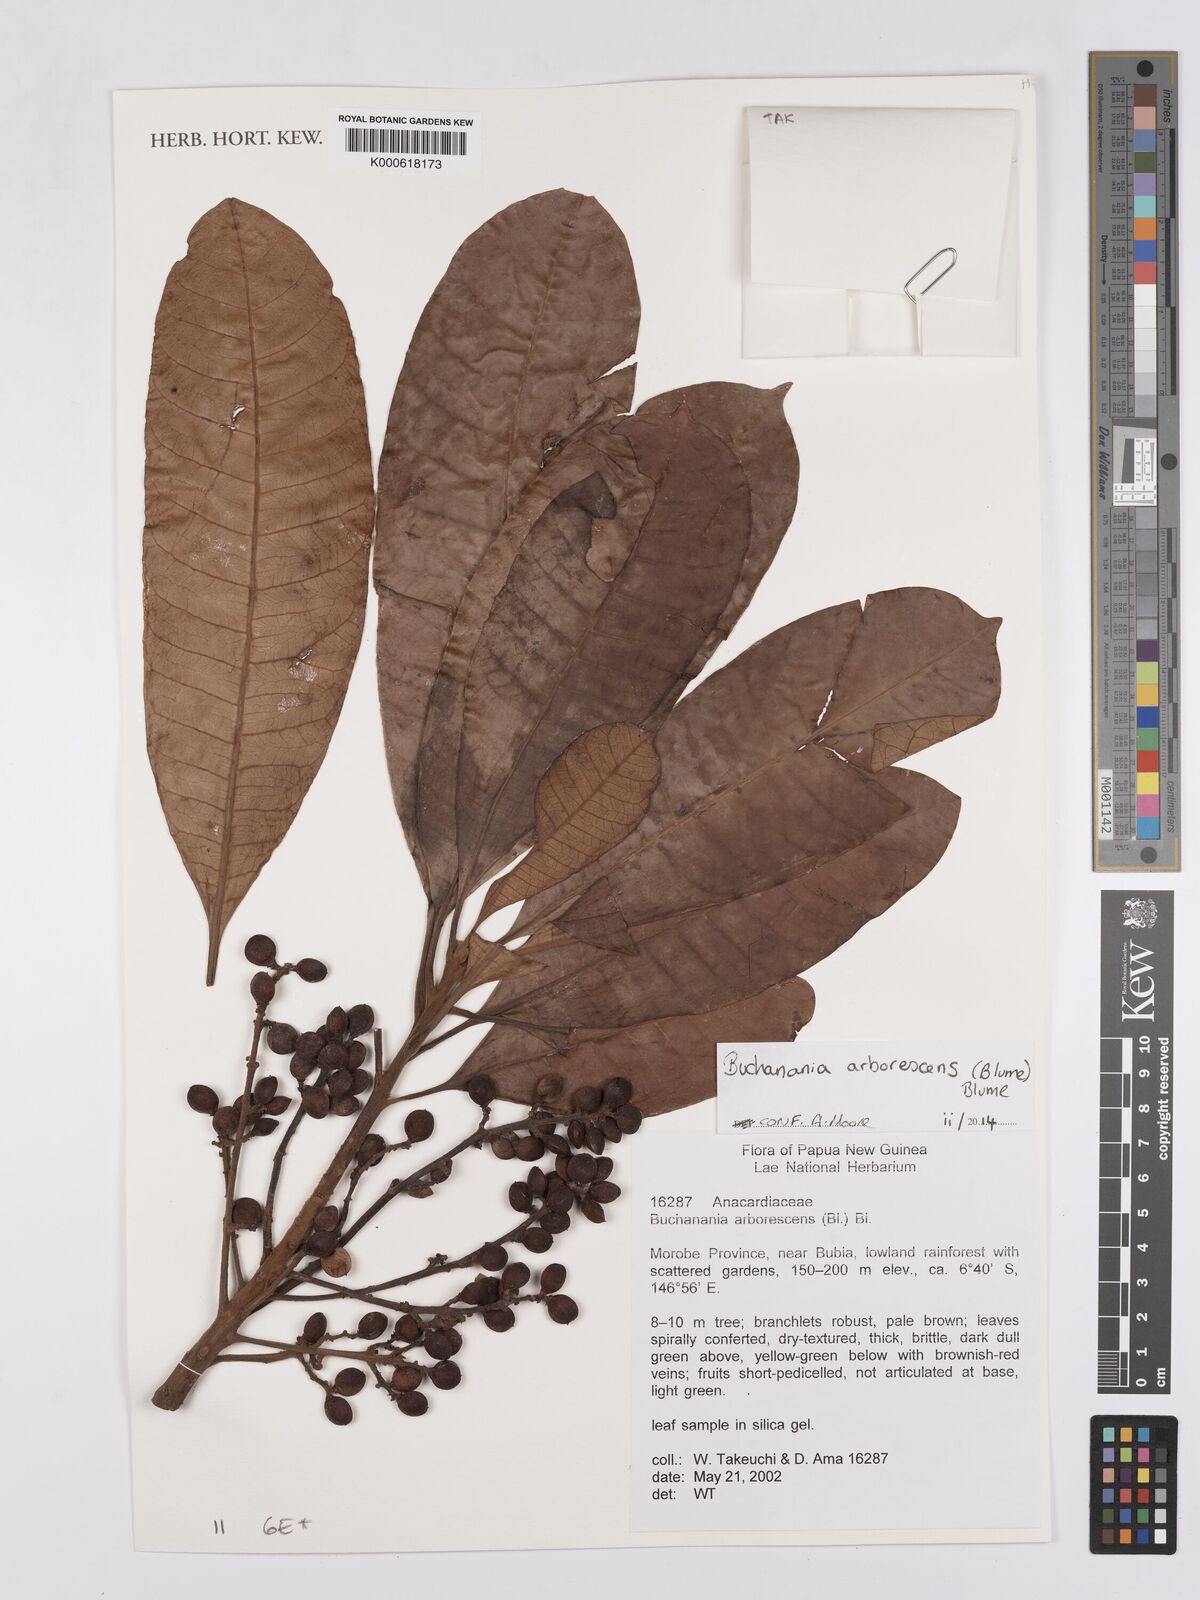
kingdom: Plantae
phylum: Tracheophyta
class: Magnoliopsida
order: Sapindales
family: Anacardiaceae
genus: Buchanania
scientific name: Buchanania arborescens
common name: Sparrow’s mango
